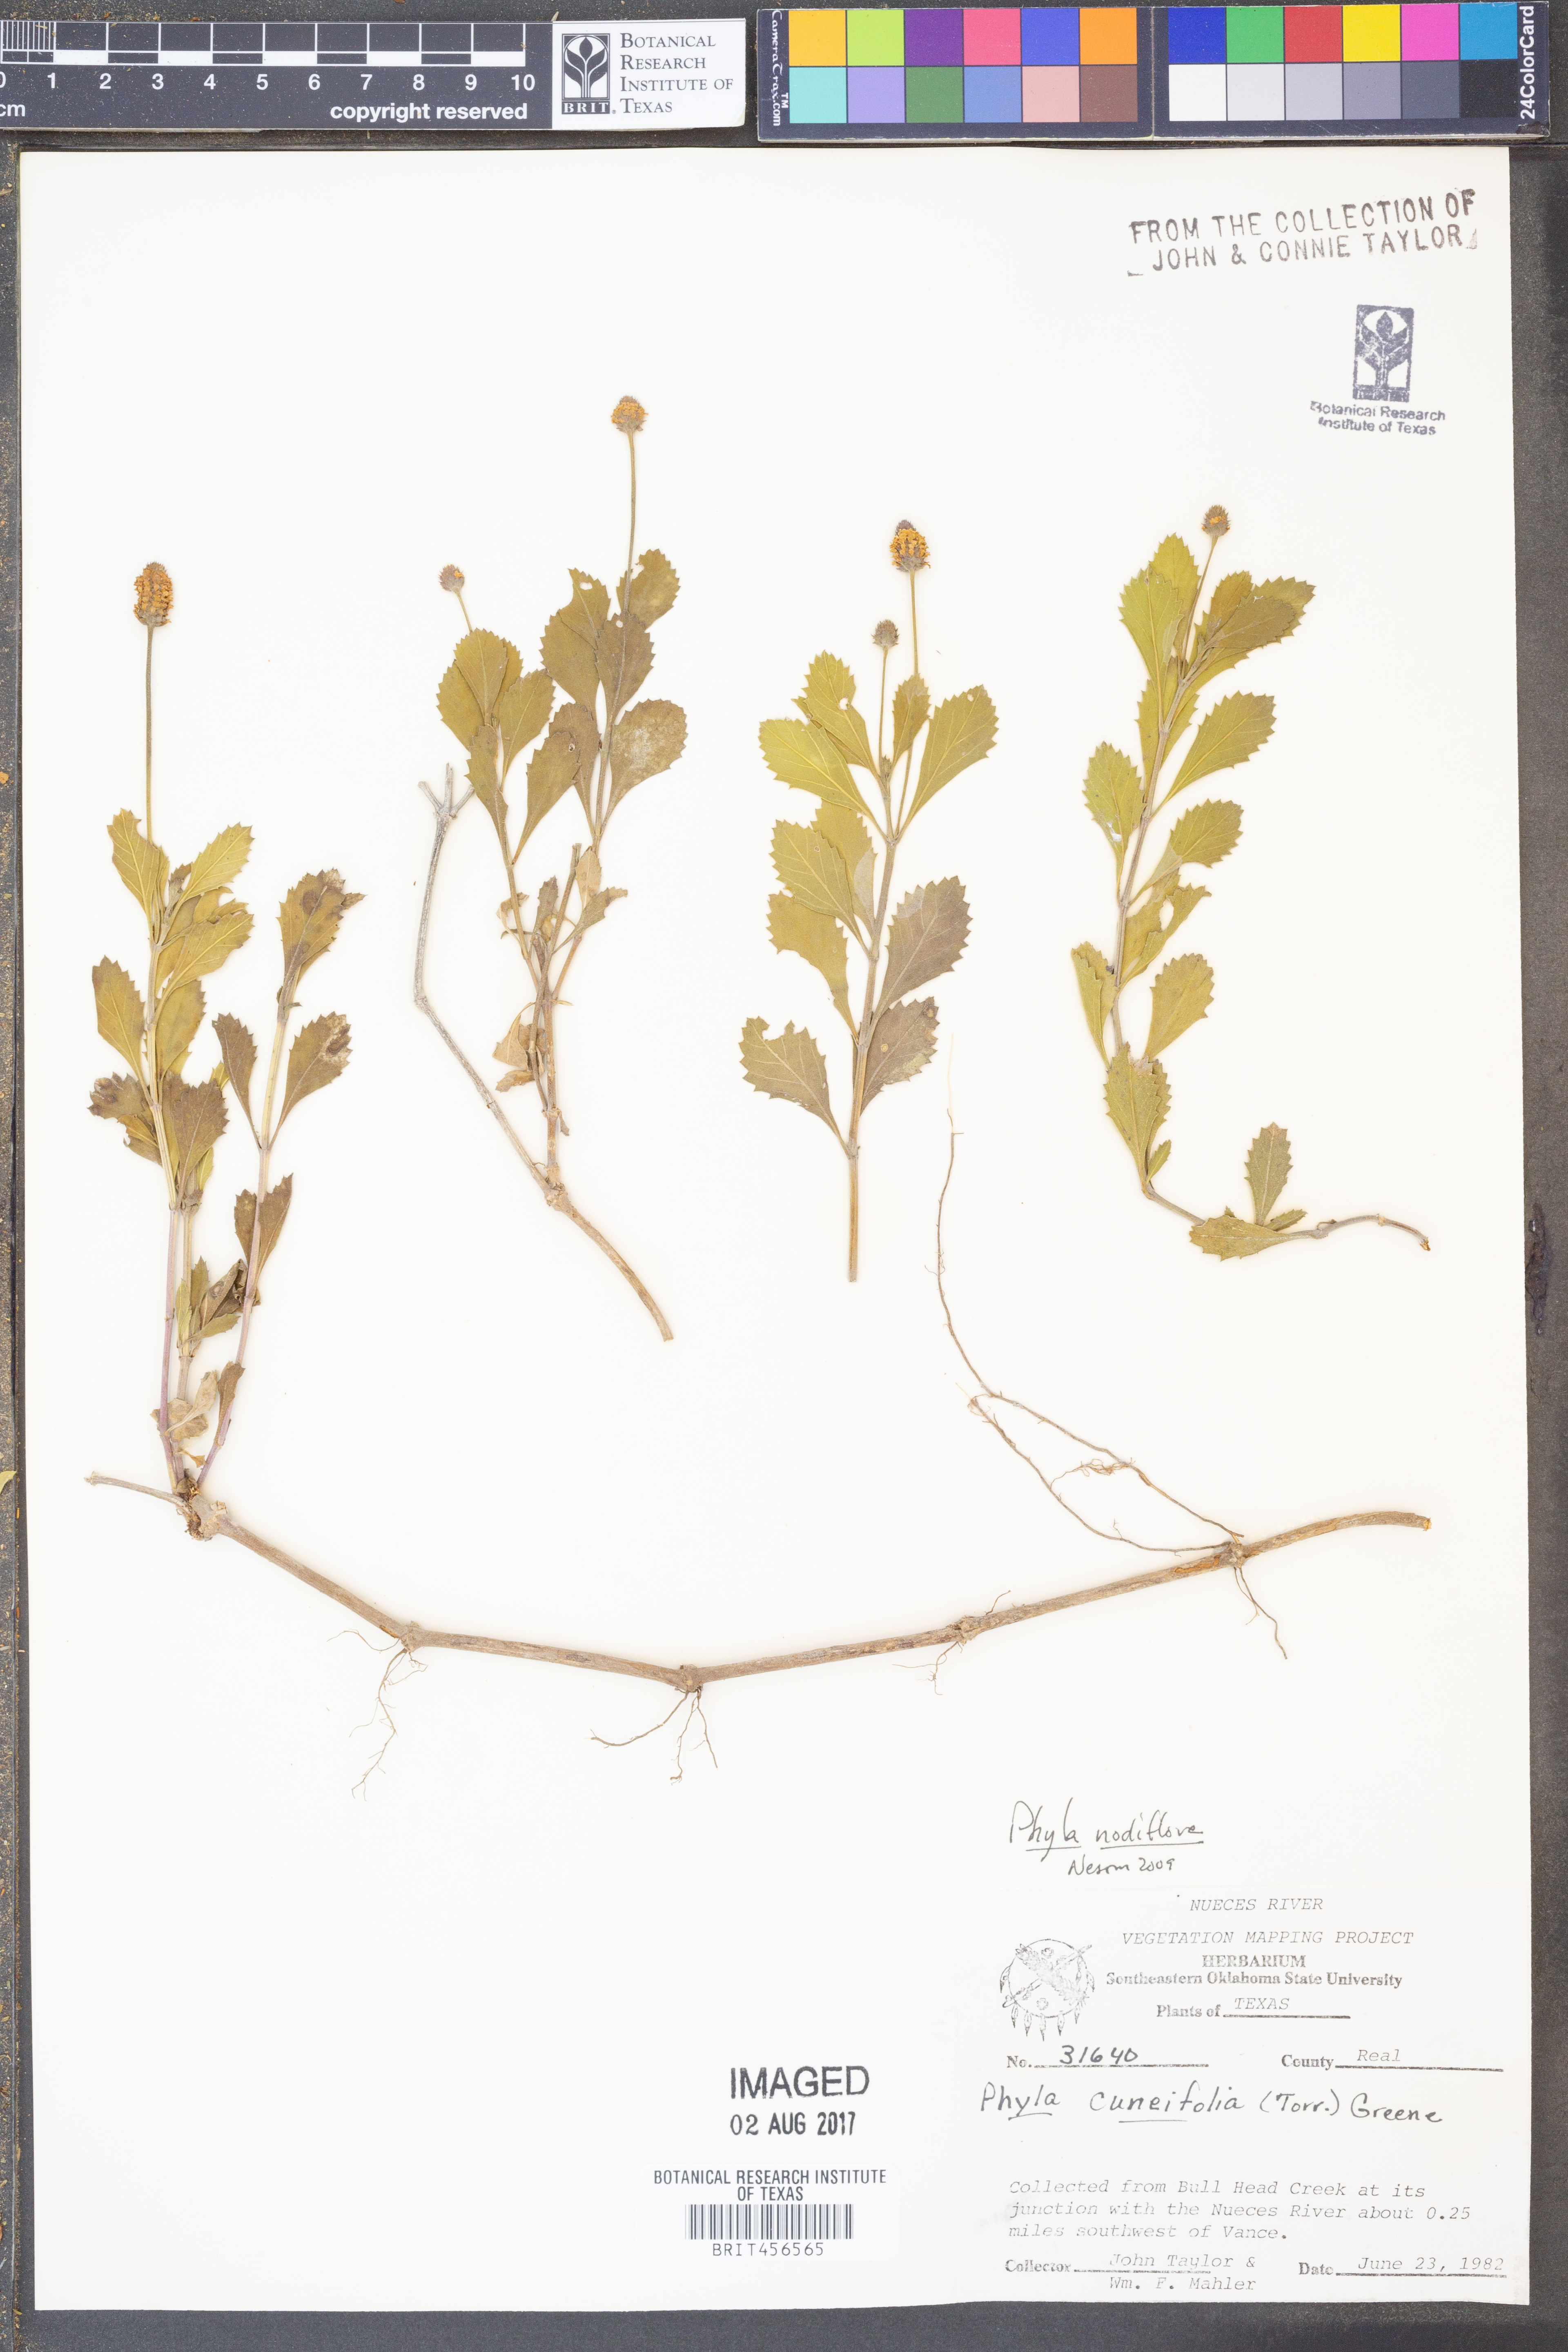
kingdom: Plantae
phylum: Tracheophyta
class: Magnoliopsida
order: Lamiales
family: Verbenaceae
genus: Phyla
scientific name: Phyla nodiflora
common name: Frogfruit
